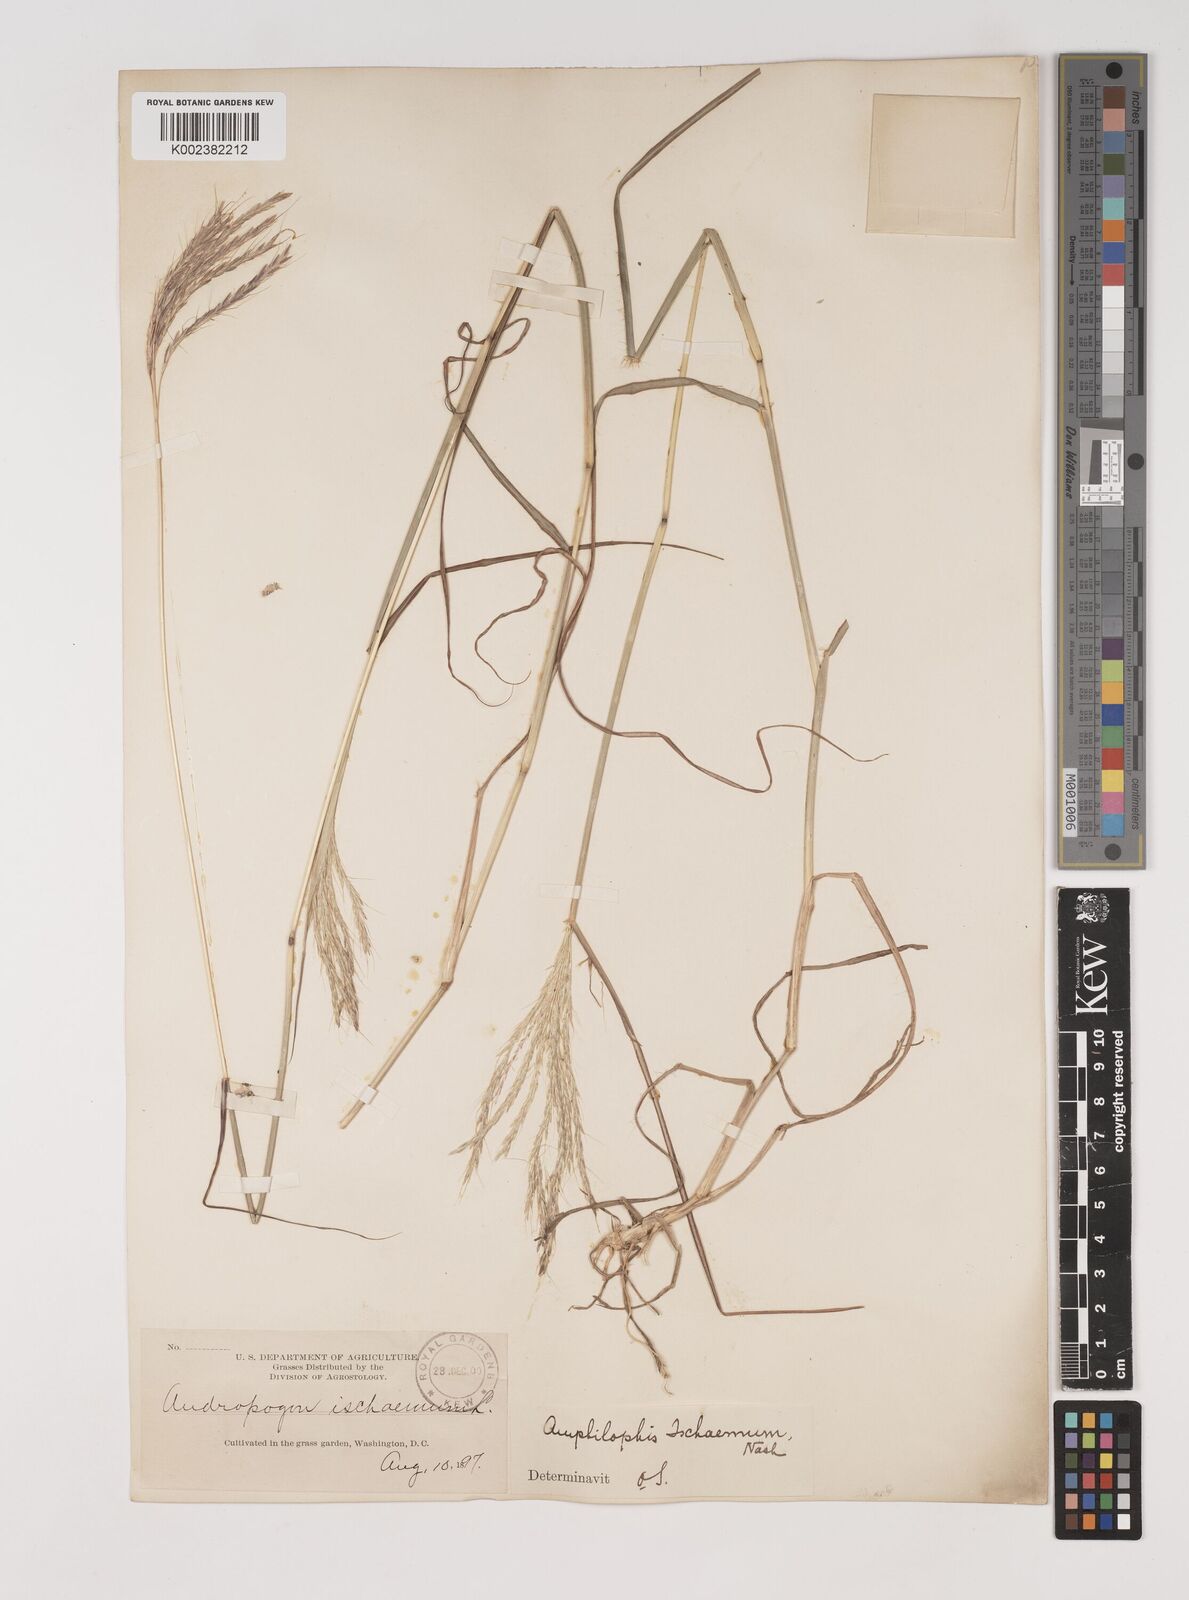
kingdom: Plantae
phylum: Tracheophyta
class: Liliopsida
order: Poales
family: Poaceae
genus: Bothriochloa
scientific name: Bothriochloa ischaemum
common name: Yellow bluestem
